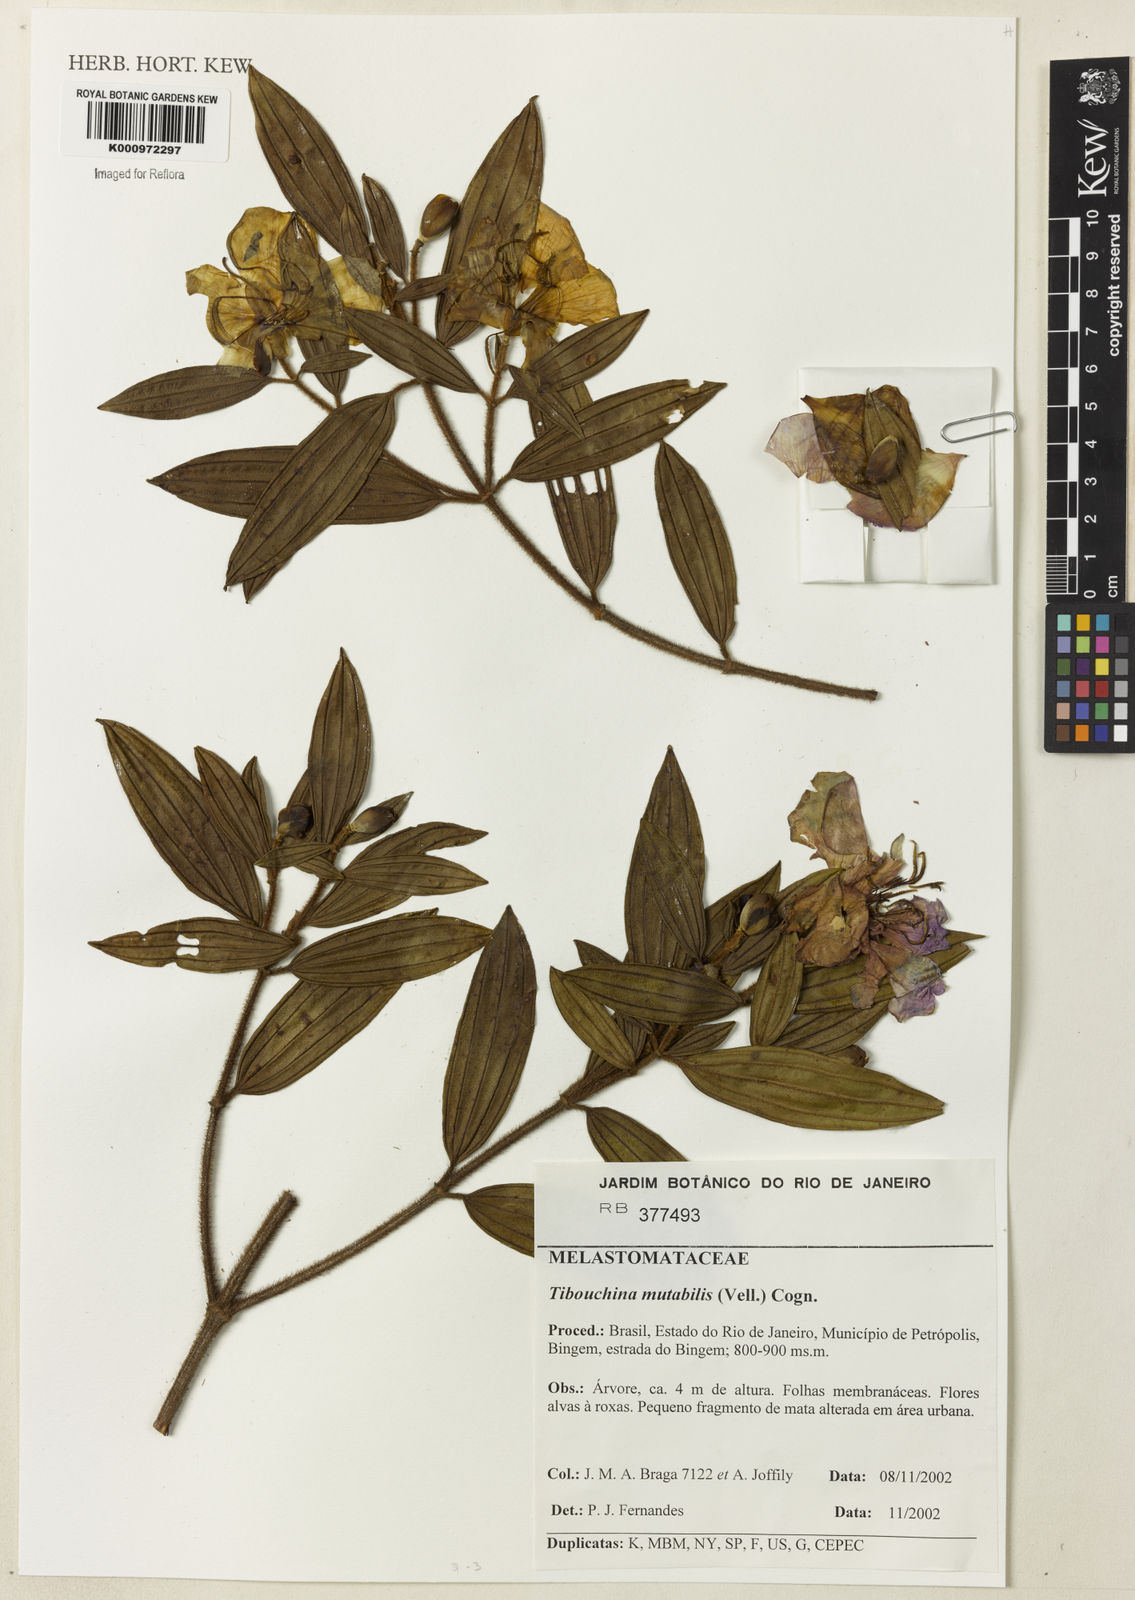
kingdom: Plantae
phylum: Tracheophyta
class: Magnoliopsida
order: Myrtales
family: Melastomataceae
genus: Pleroma
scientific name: Pleroma mutabile
